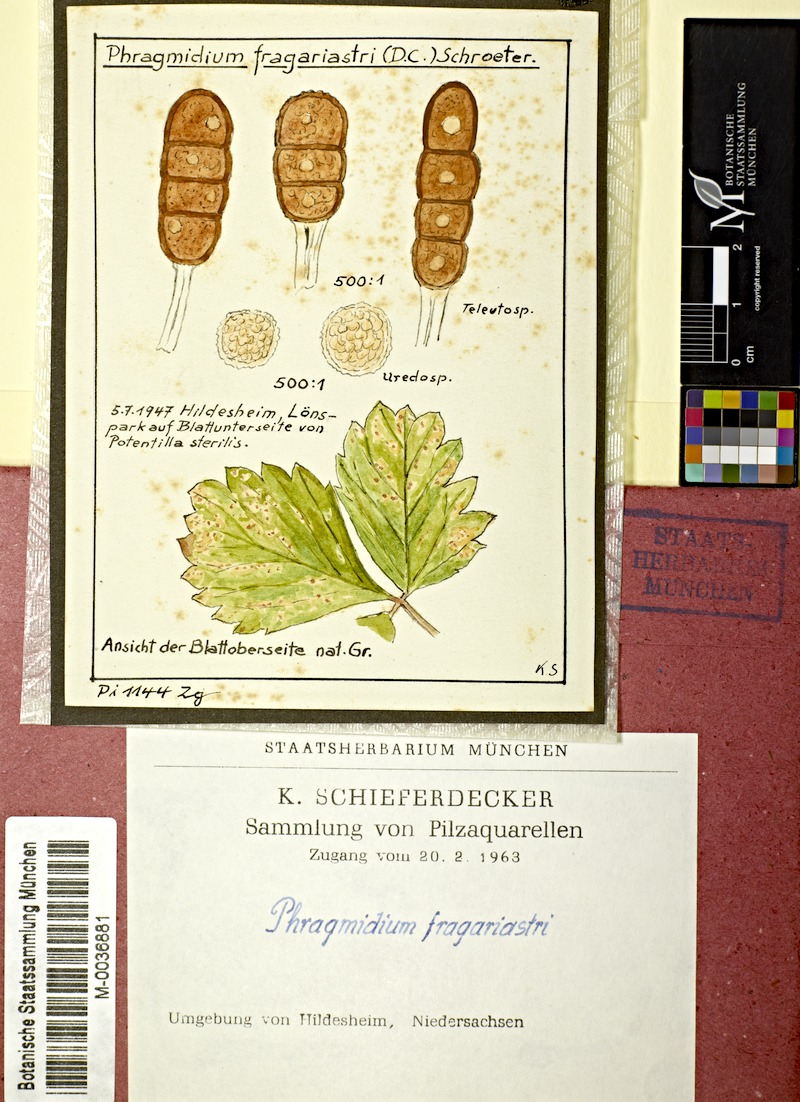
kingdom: Plantae
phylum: Tracheophyta
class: Magnoliopsida
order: Rosales
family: Rosaceae
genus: Potentilla
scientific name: Potentilla sterilis
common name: Barren strawberry
